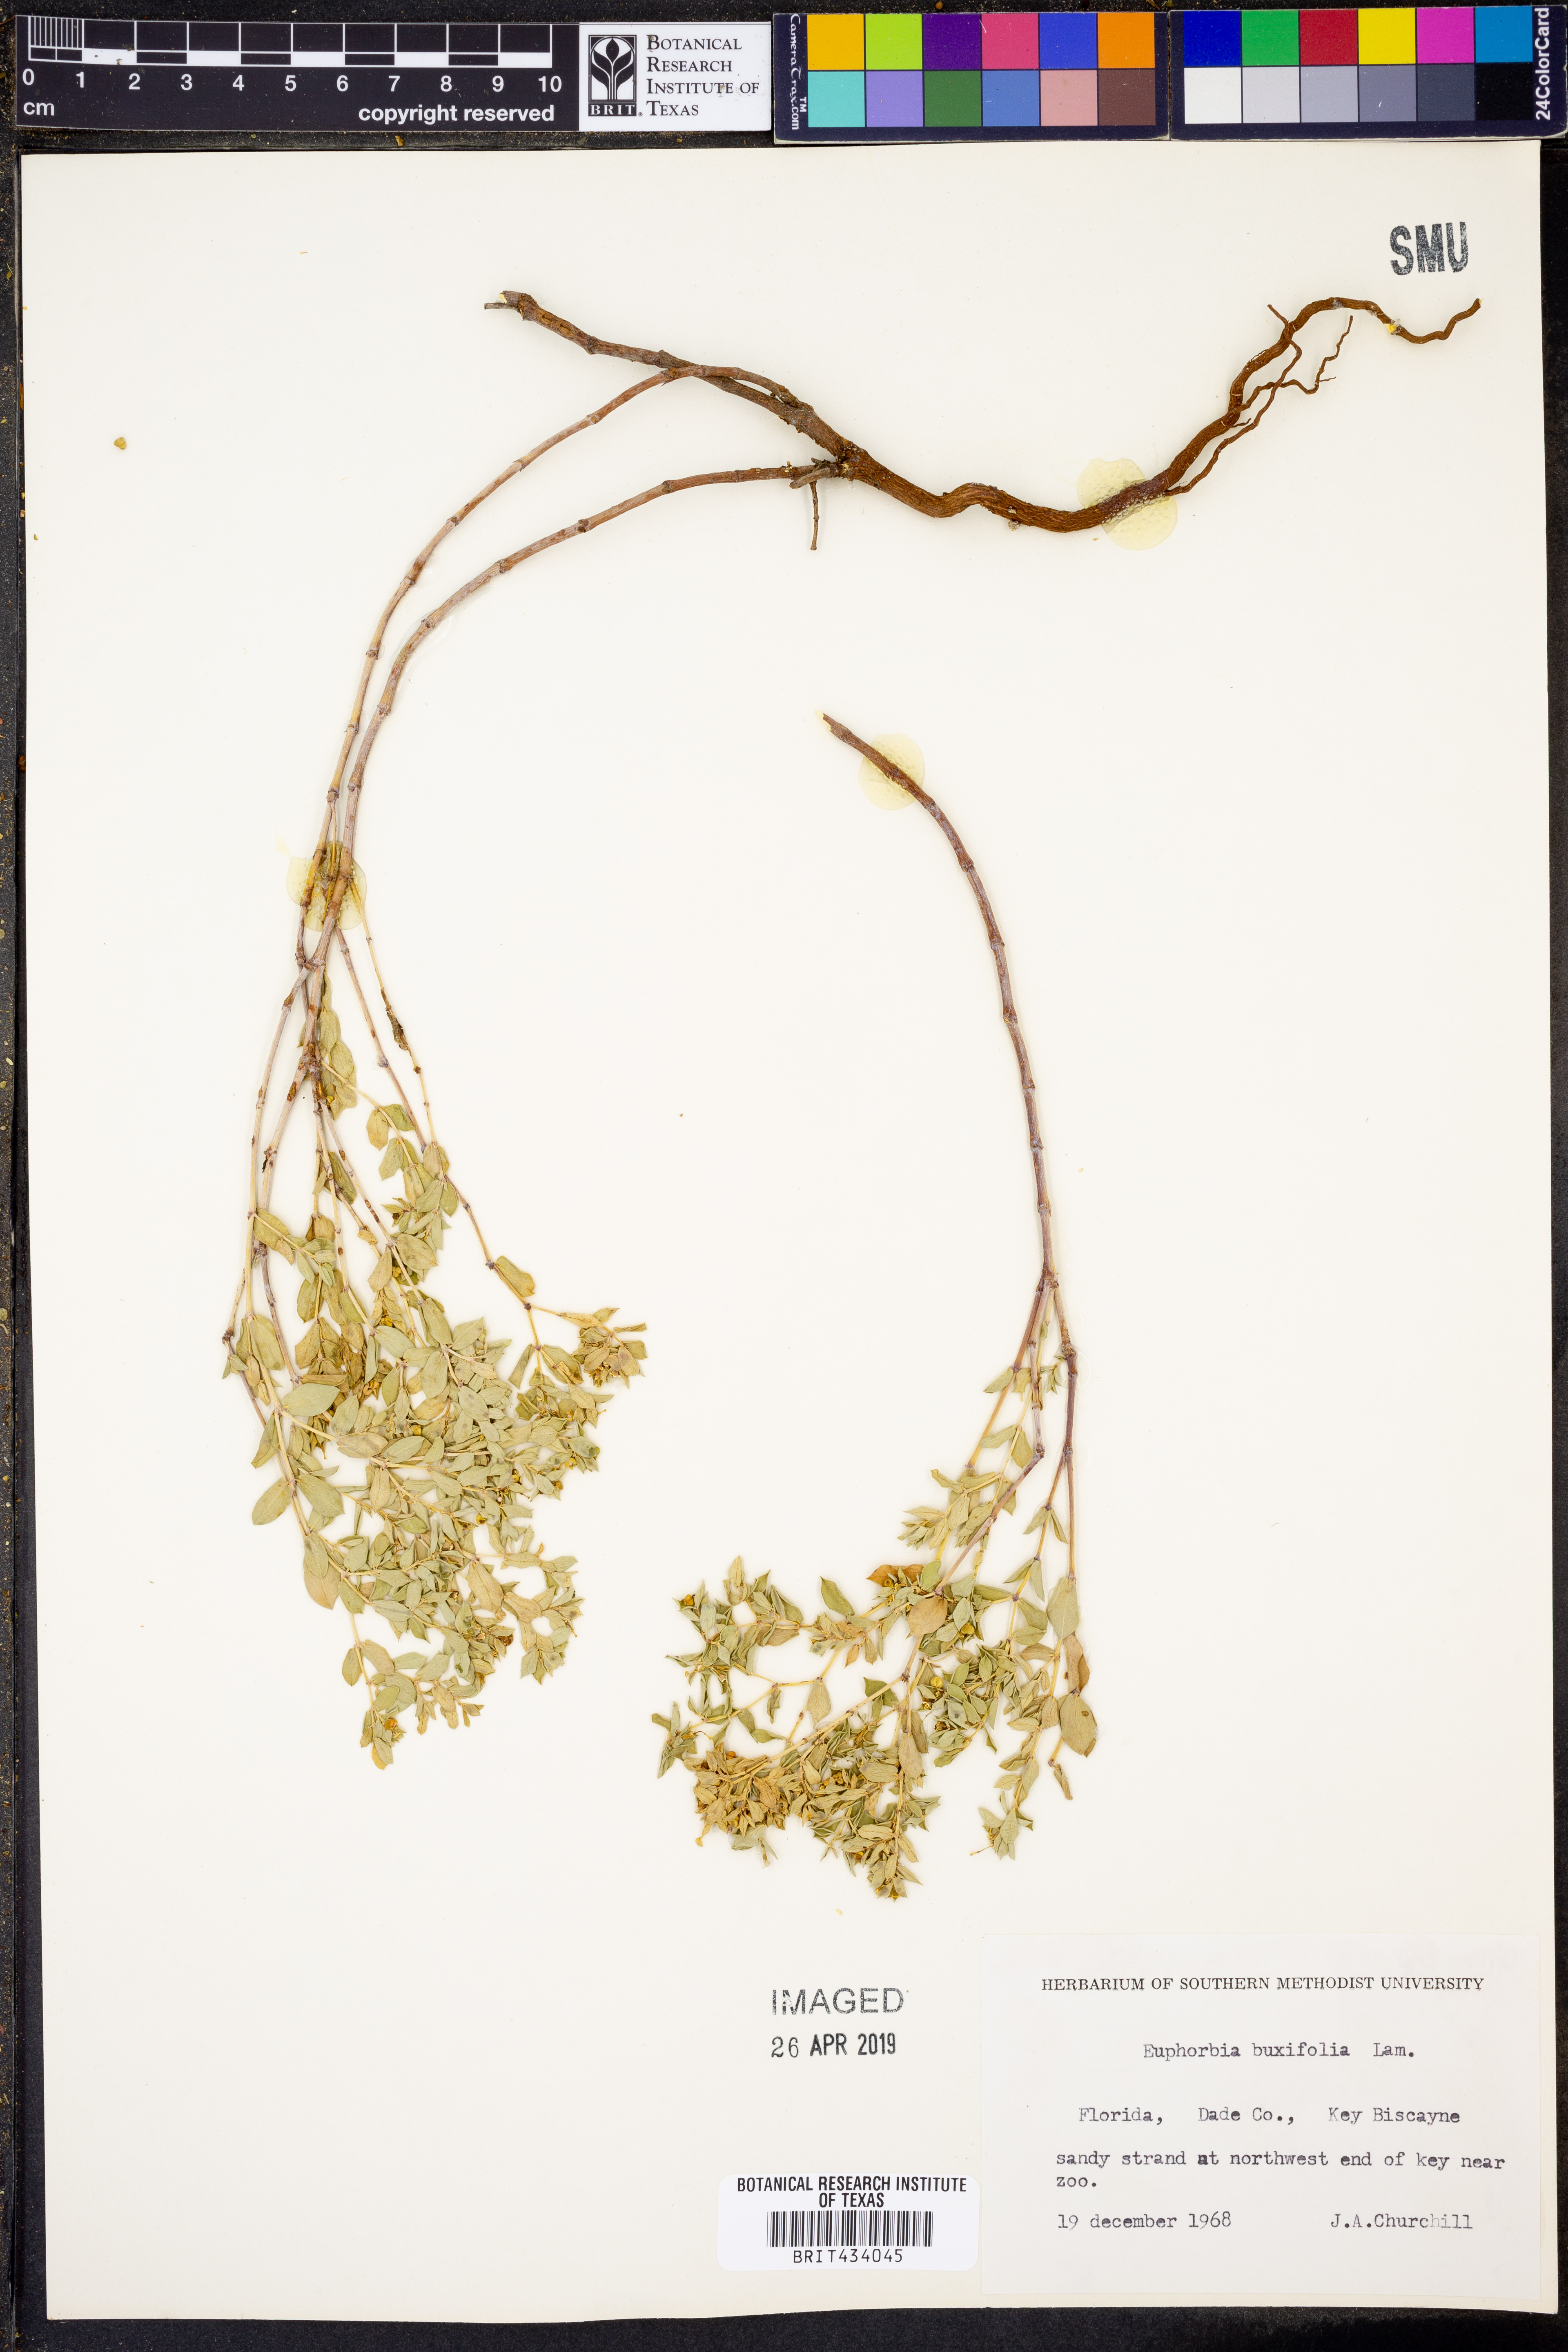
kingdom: Plantae
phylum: Tracheophyta
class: Magnoliopsida
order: Malpighiales
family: Euphorbiaceae
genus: Euphorbia
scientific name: Euphorbia mesembryanthemifolia
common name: Coastal beach sandmat
